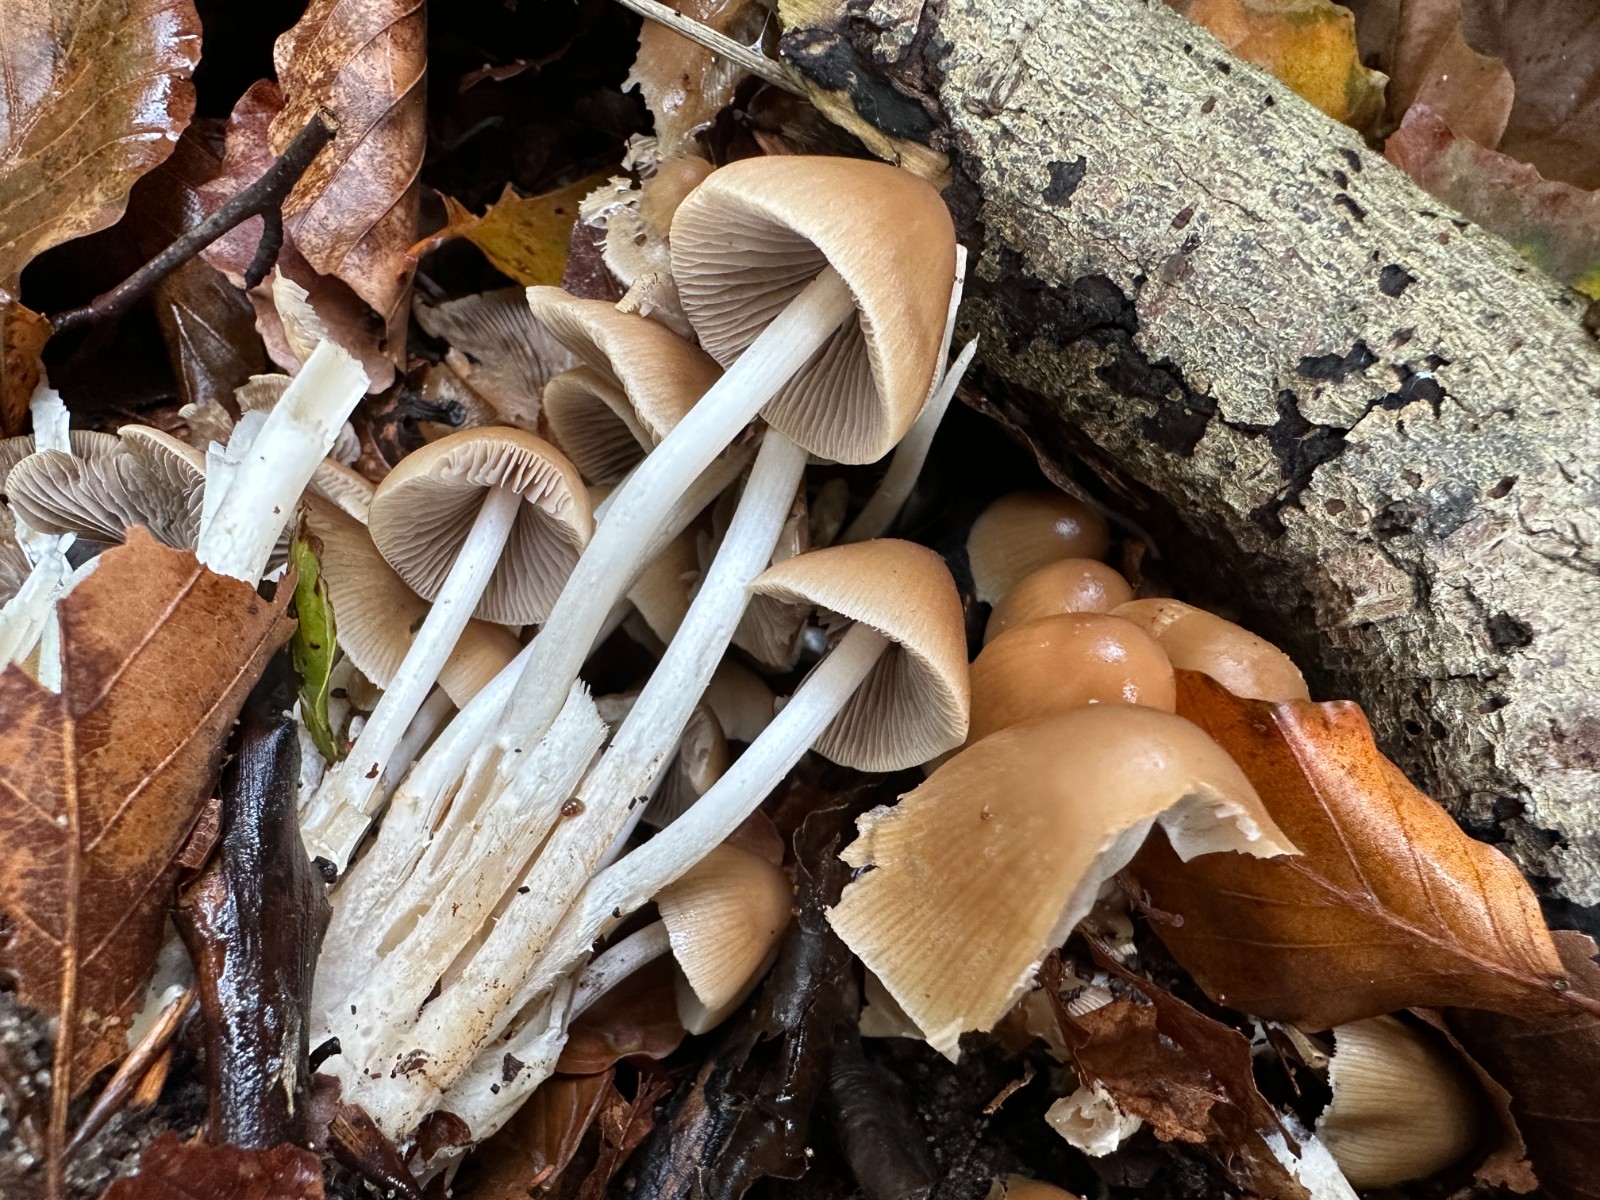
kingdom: Fungi
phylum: Basidiomycota
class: Agaricomycetes
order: Agaricales
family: Psathyrellaceae
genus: Britzelmayria
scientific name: Britzelmayria multipedata
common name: knippe-mørkhat
